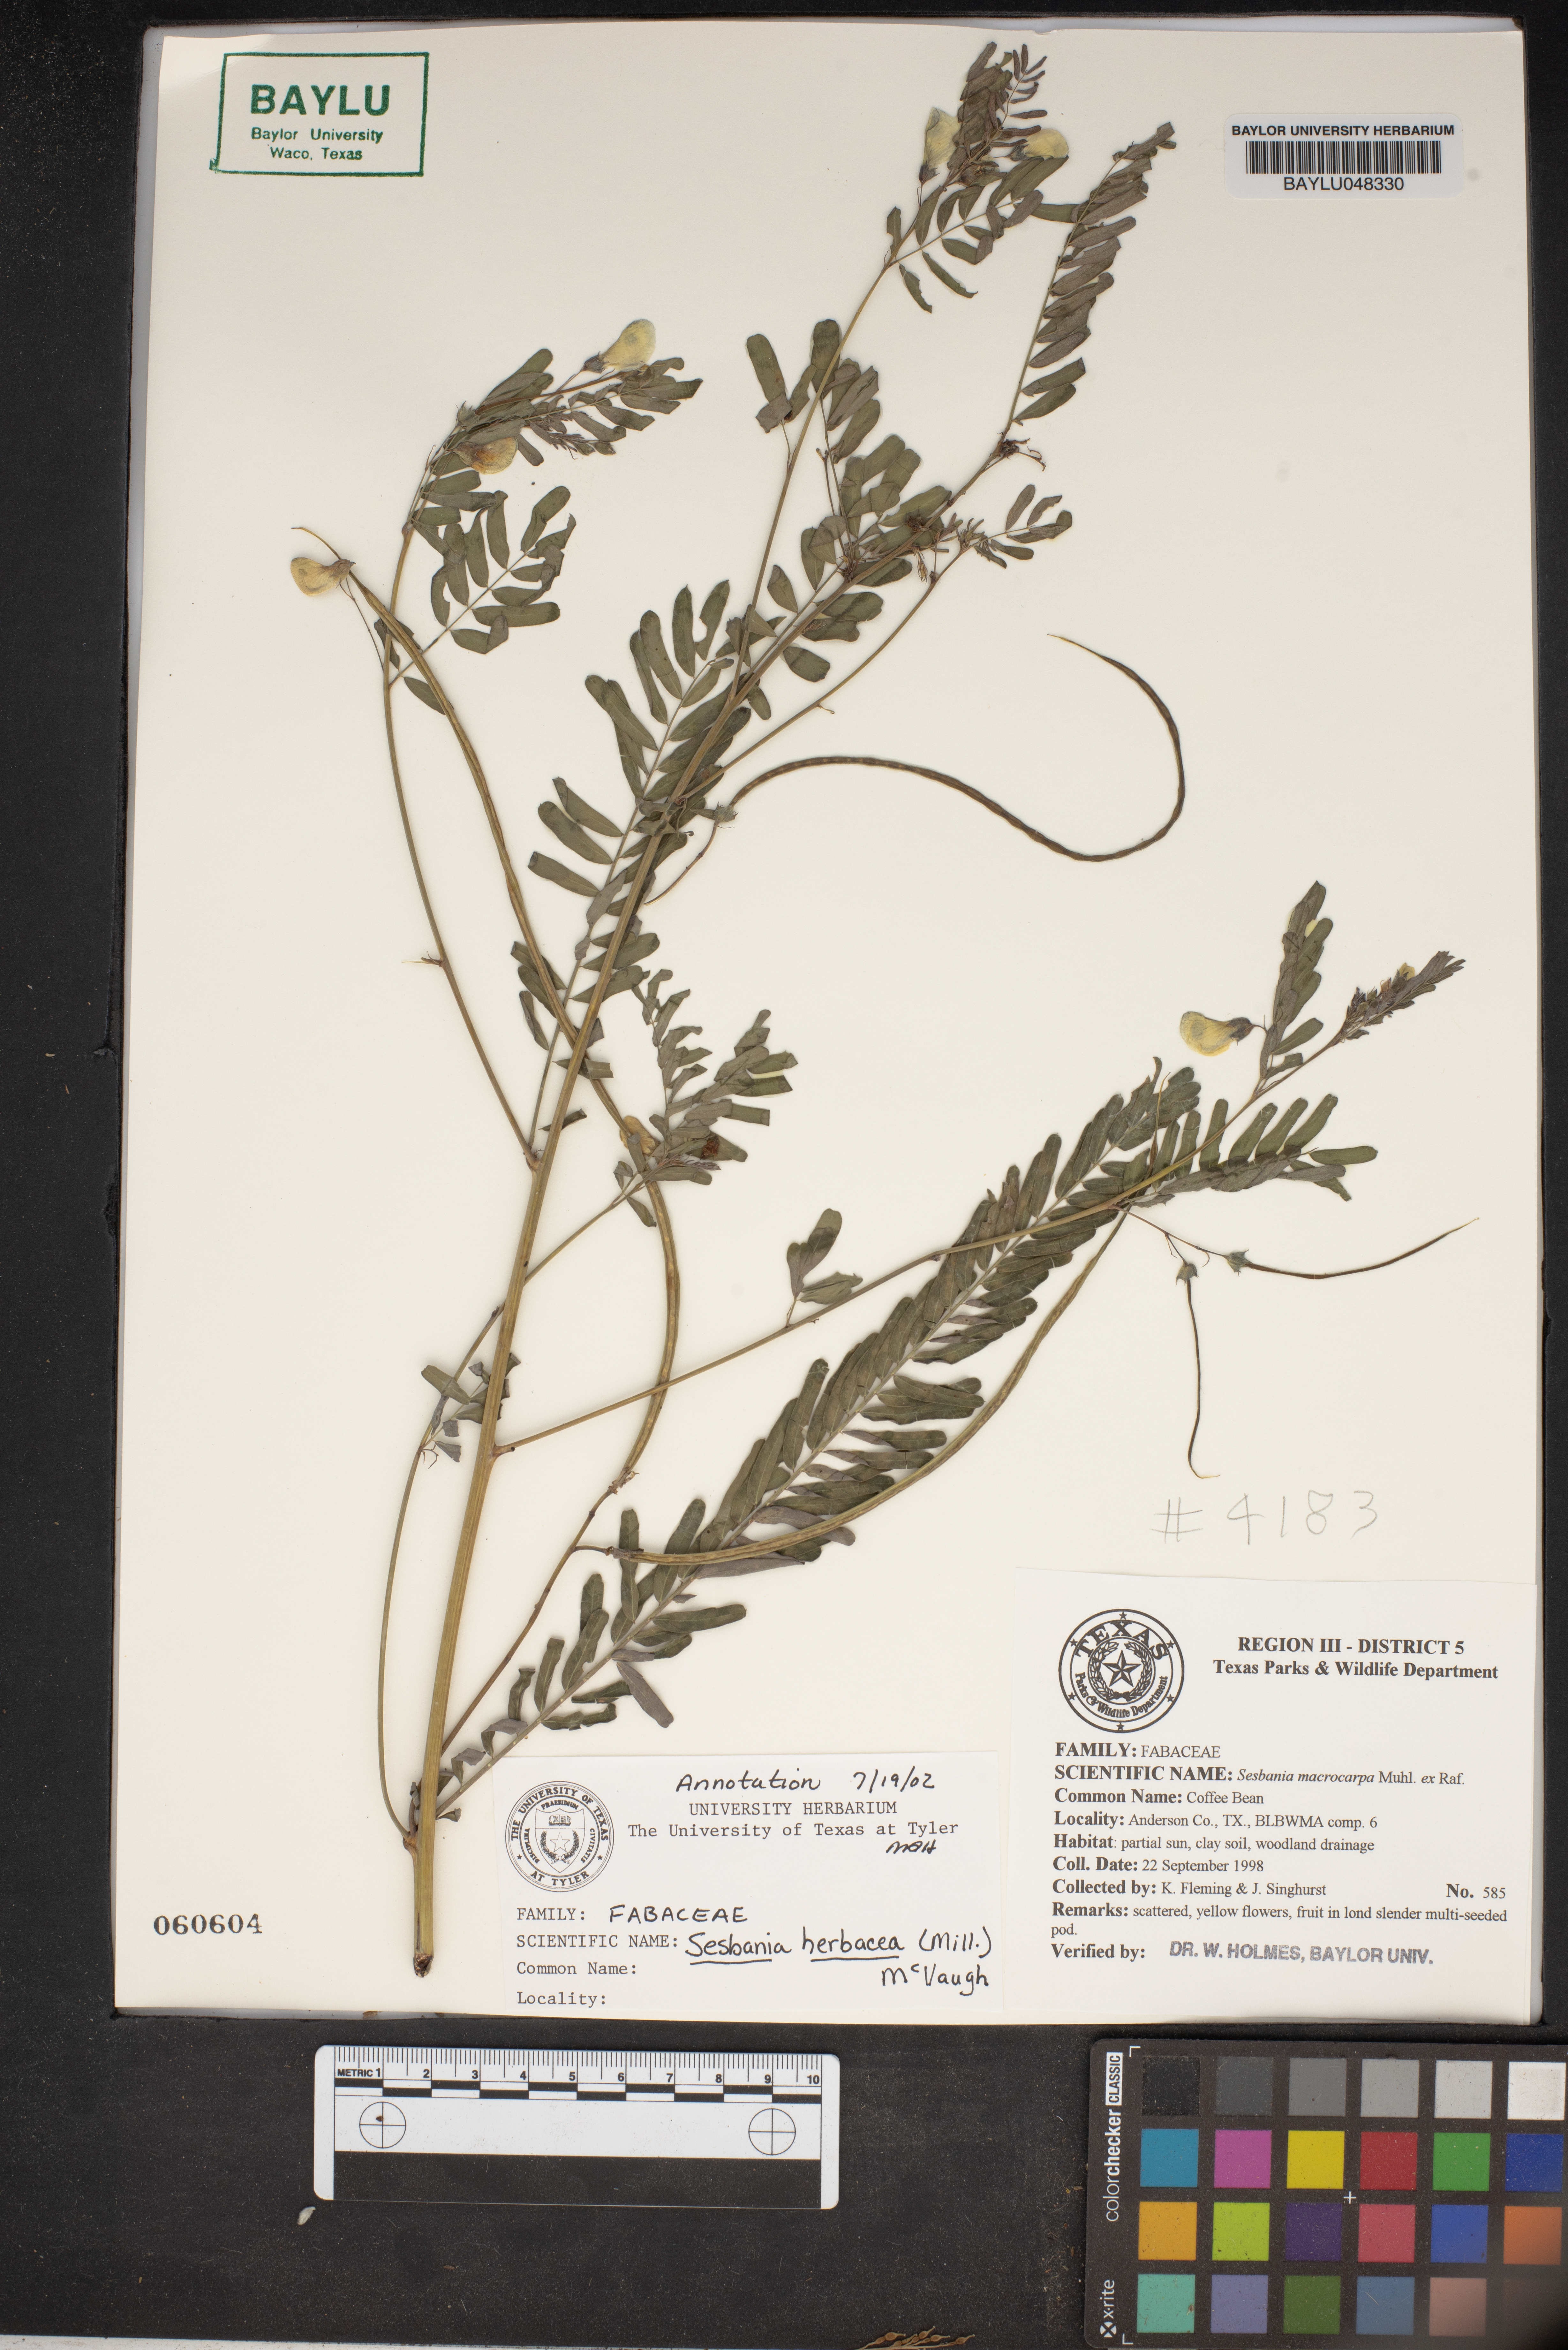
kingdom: Plantae
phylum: Tracheophyta
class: Magnoliopsida
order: Fabales
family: Fabaceae
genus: Sesbania
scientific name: Sesbania herbacea
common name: Bigpod sesbania
